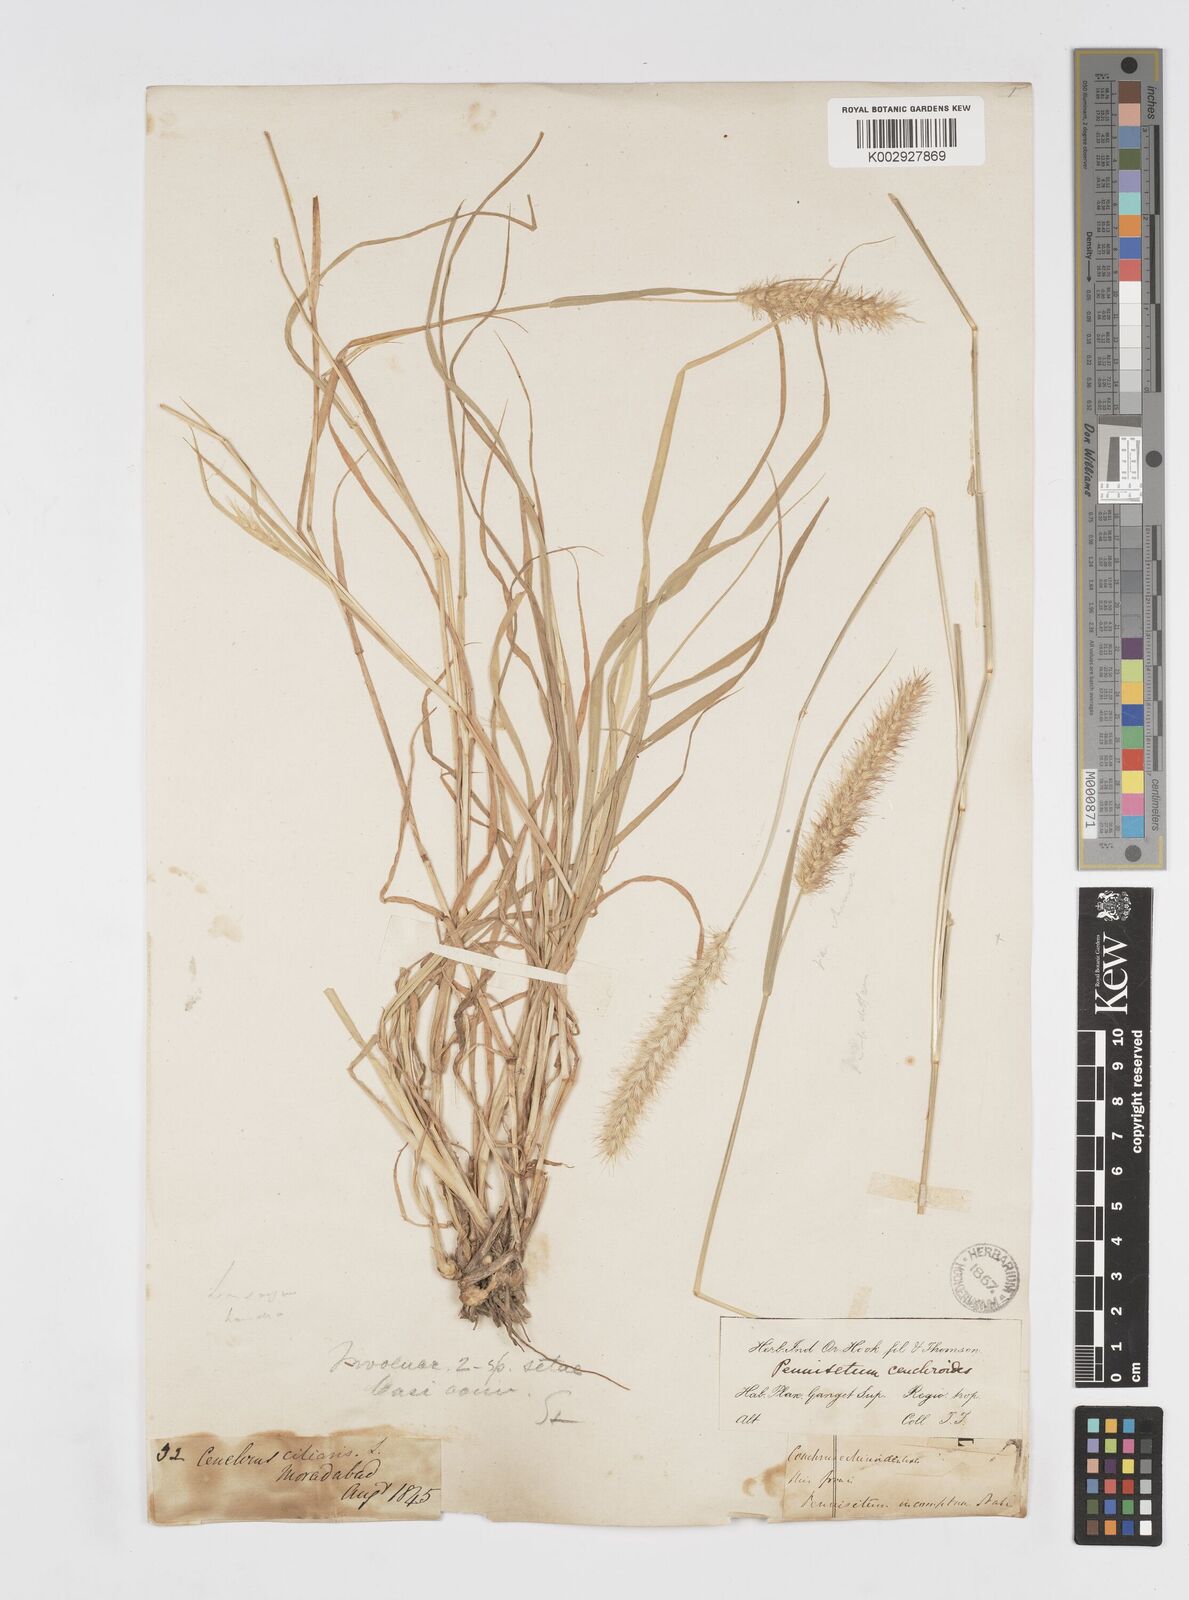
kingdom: Plantae
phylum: Tracheophyta
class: Liliopsida
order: Poales
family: Poaceae
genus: Cenchrus
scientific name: Cenchrus ciliaris
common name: Buffelgrass
